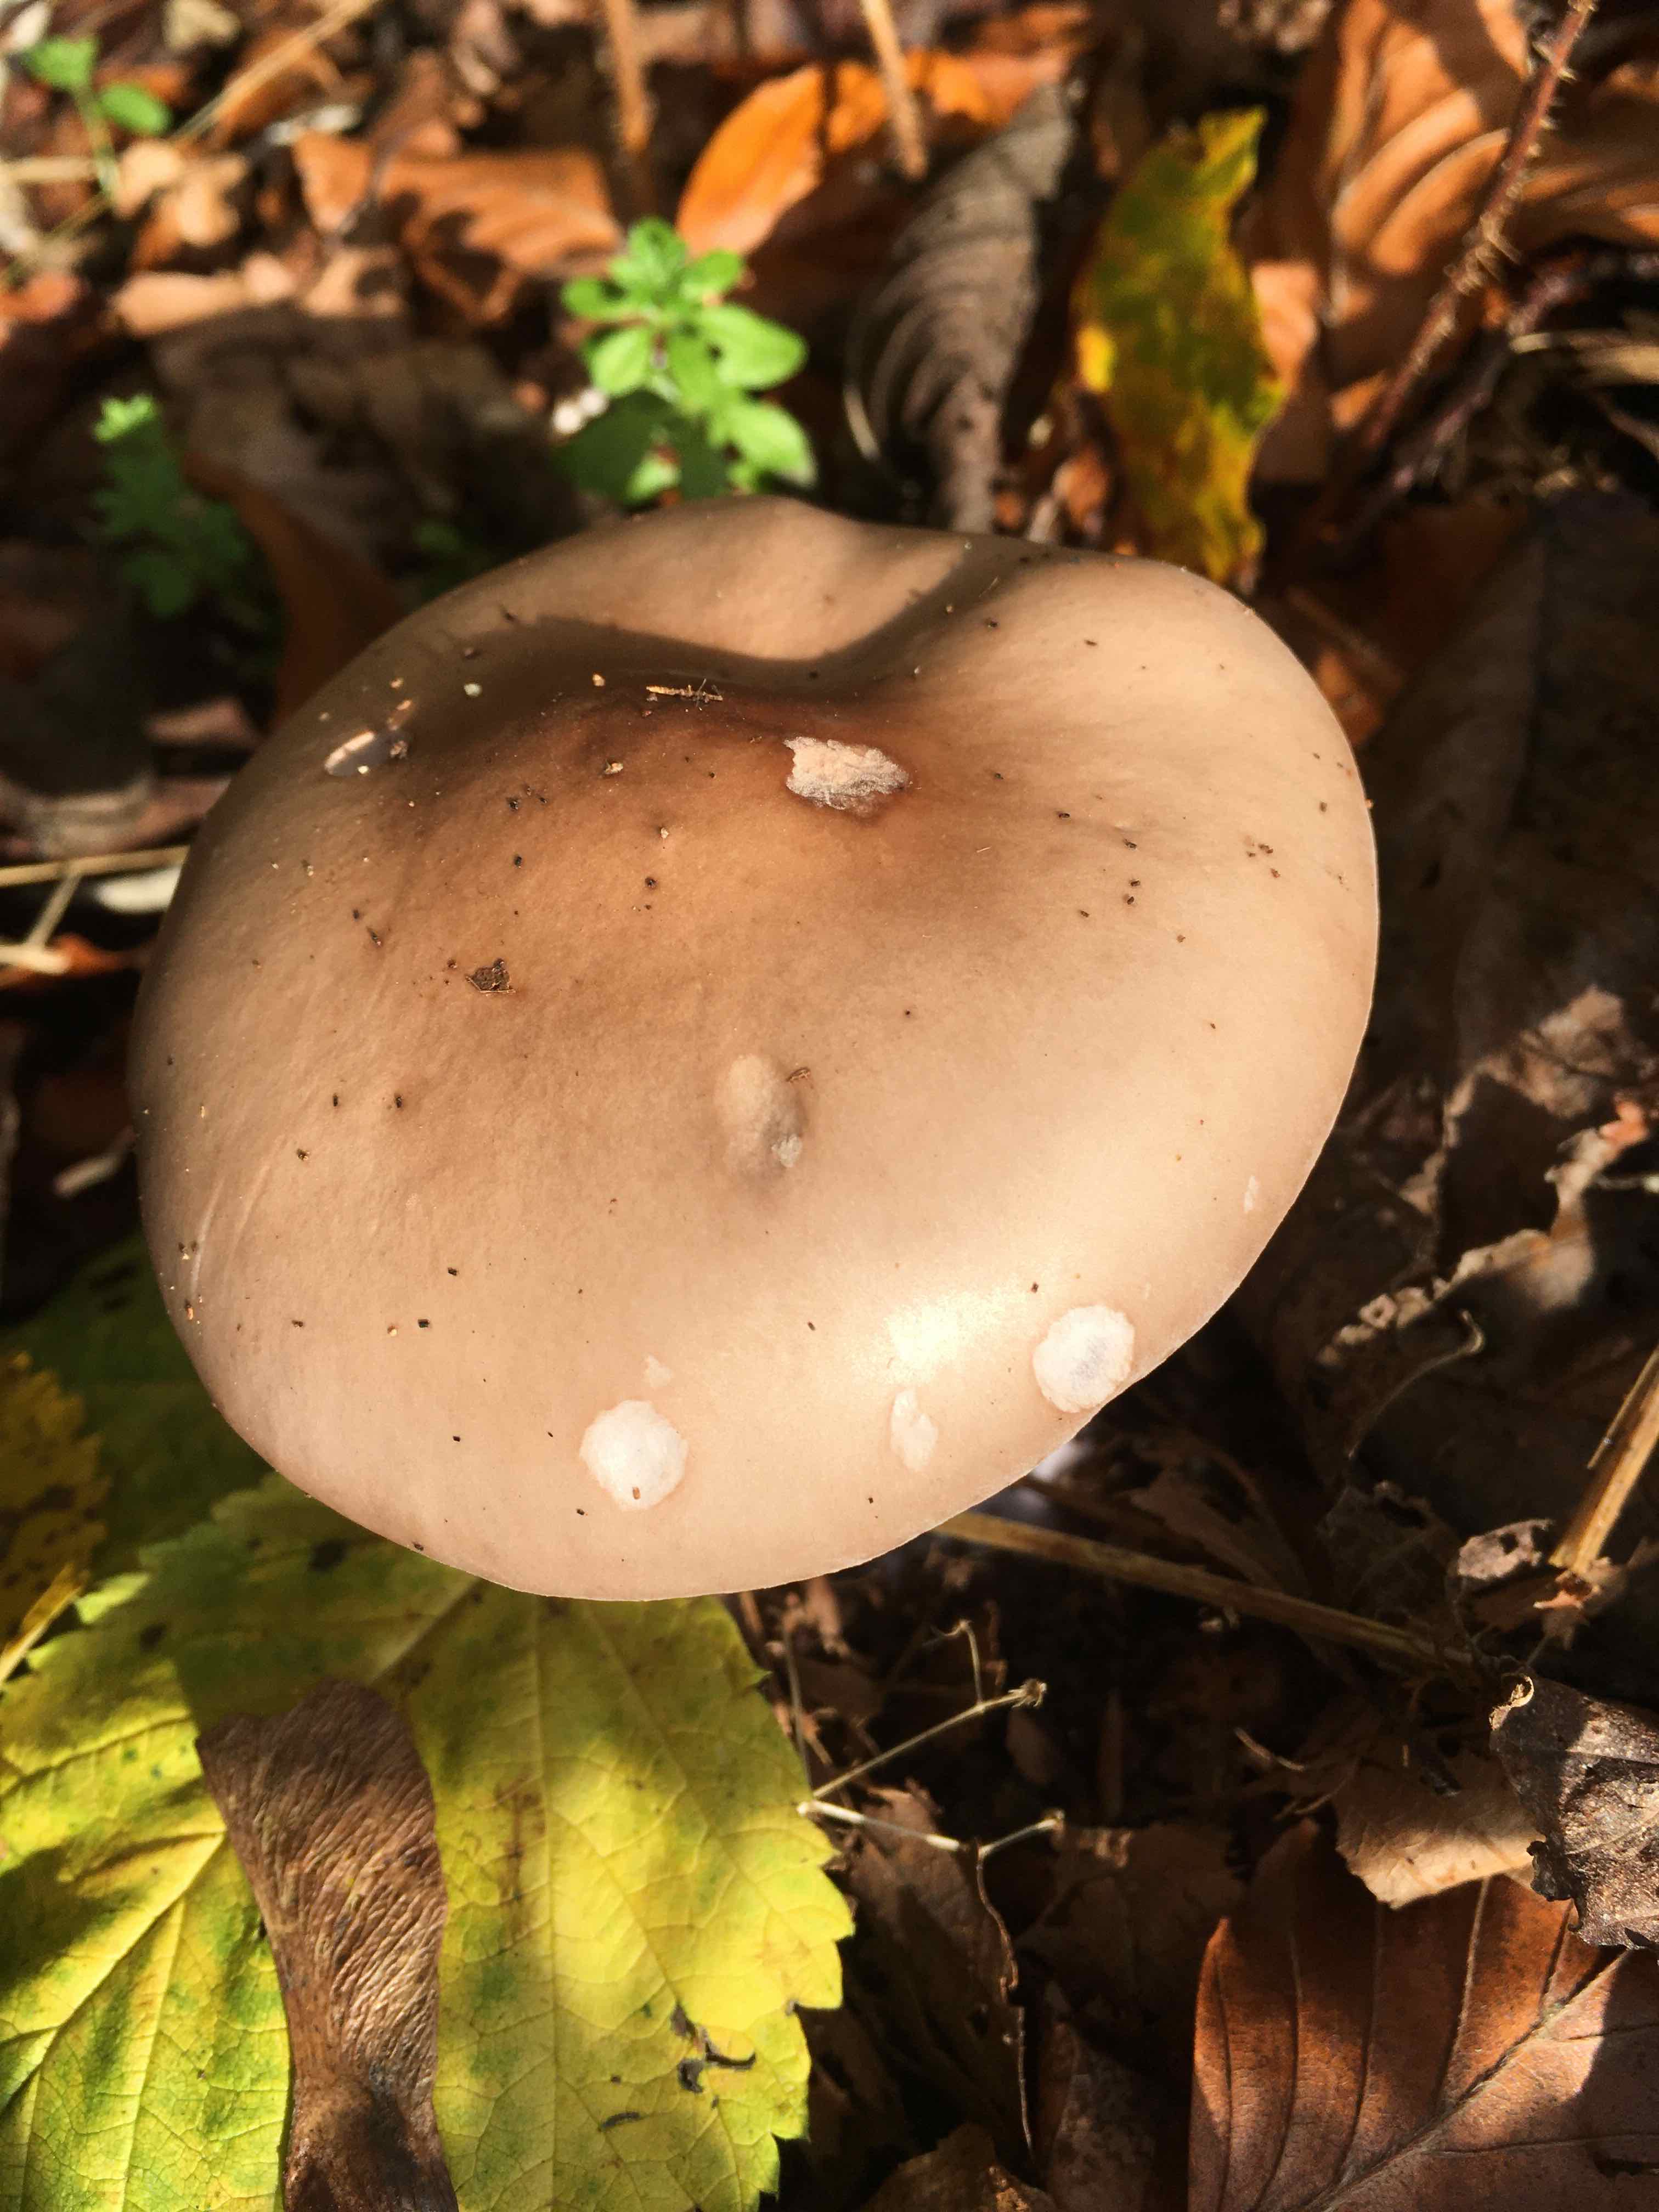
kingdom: Fungi
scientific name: Fungi
